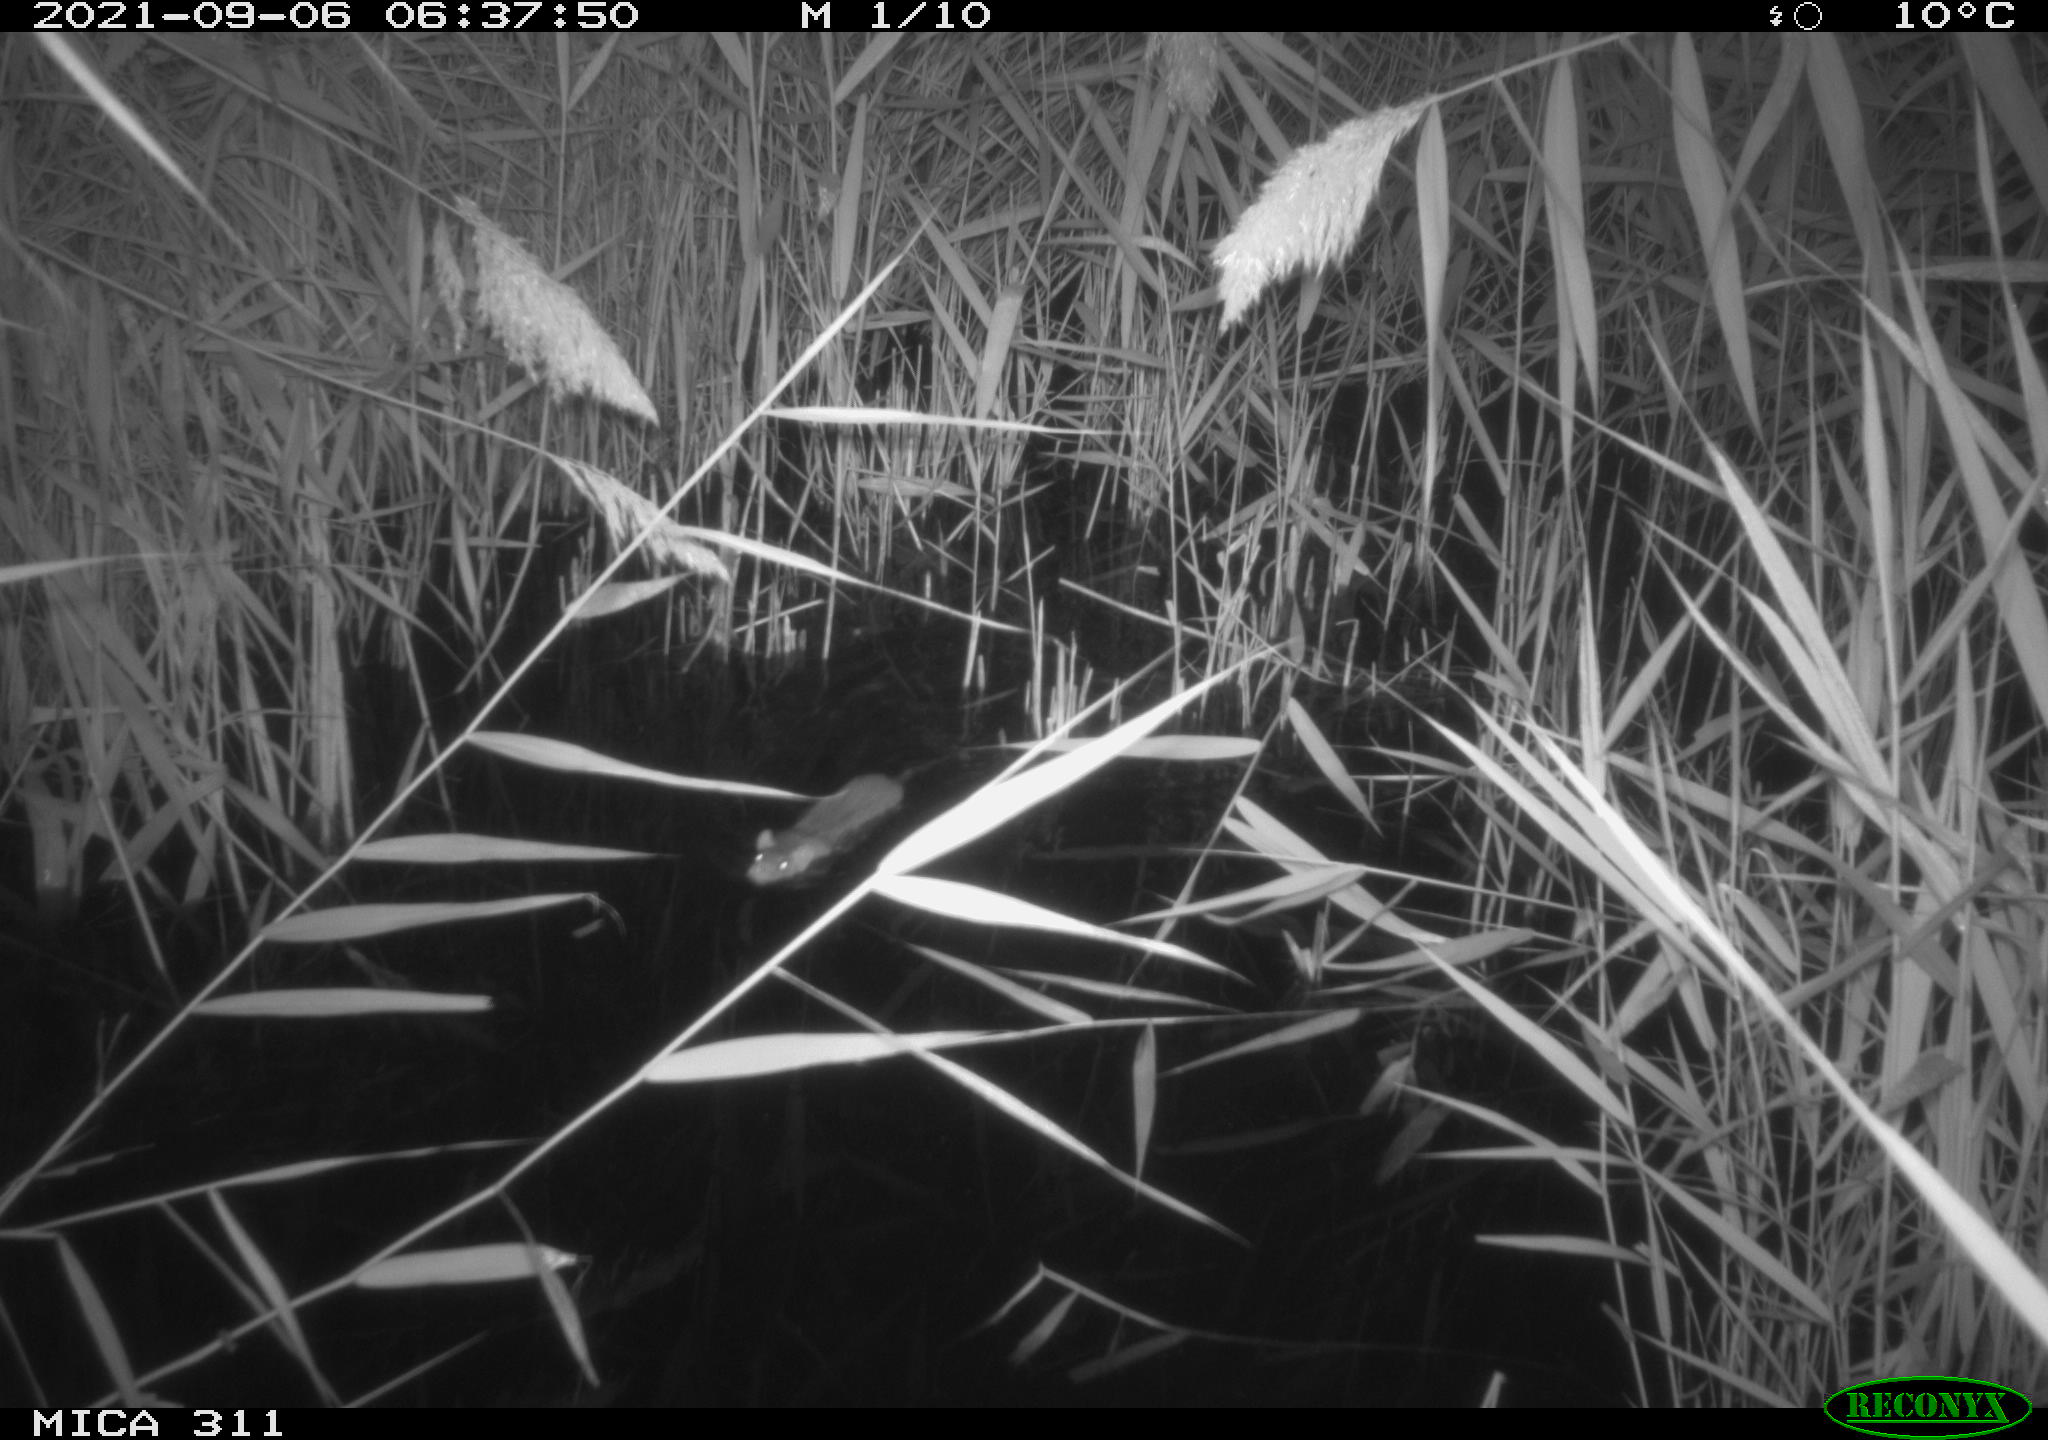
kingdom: Animalia
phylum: Chordata
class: Mammalia
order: Rodentia
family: Muridae
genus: Rattus
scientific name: Rattus norvegicus
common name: Brown rat
